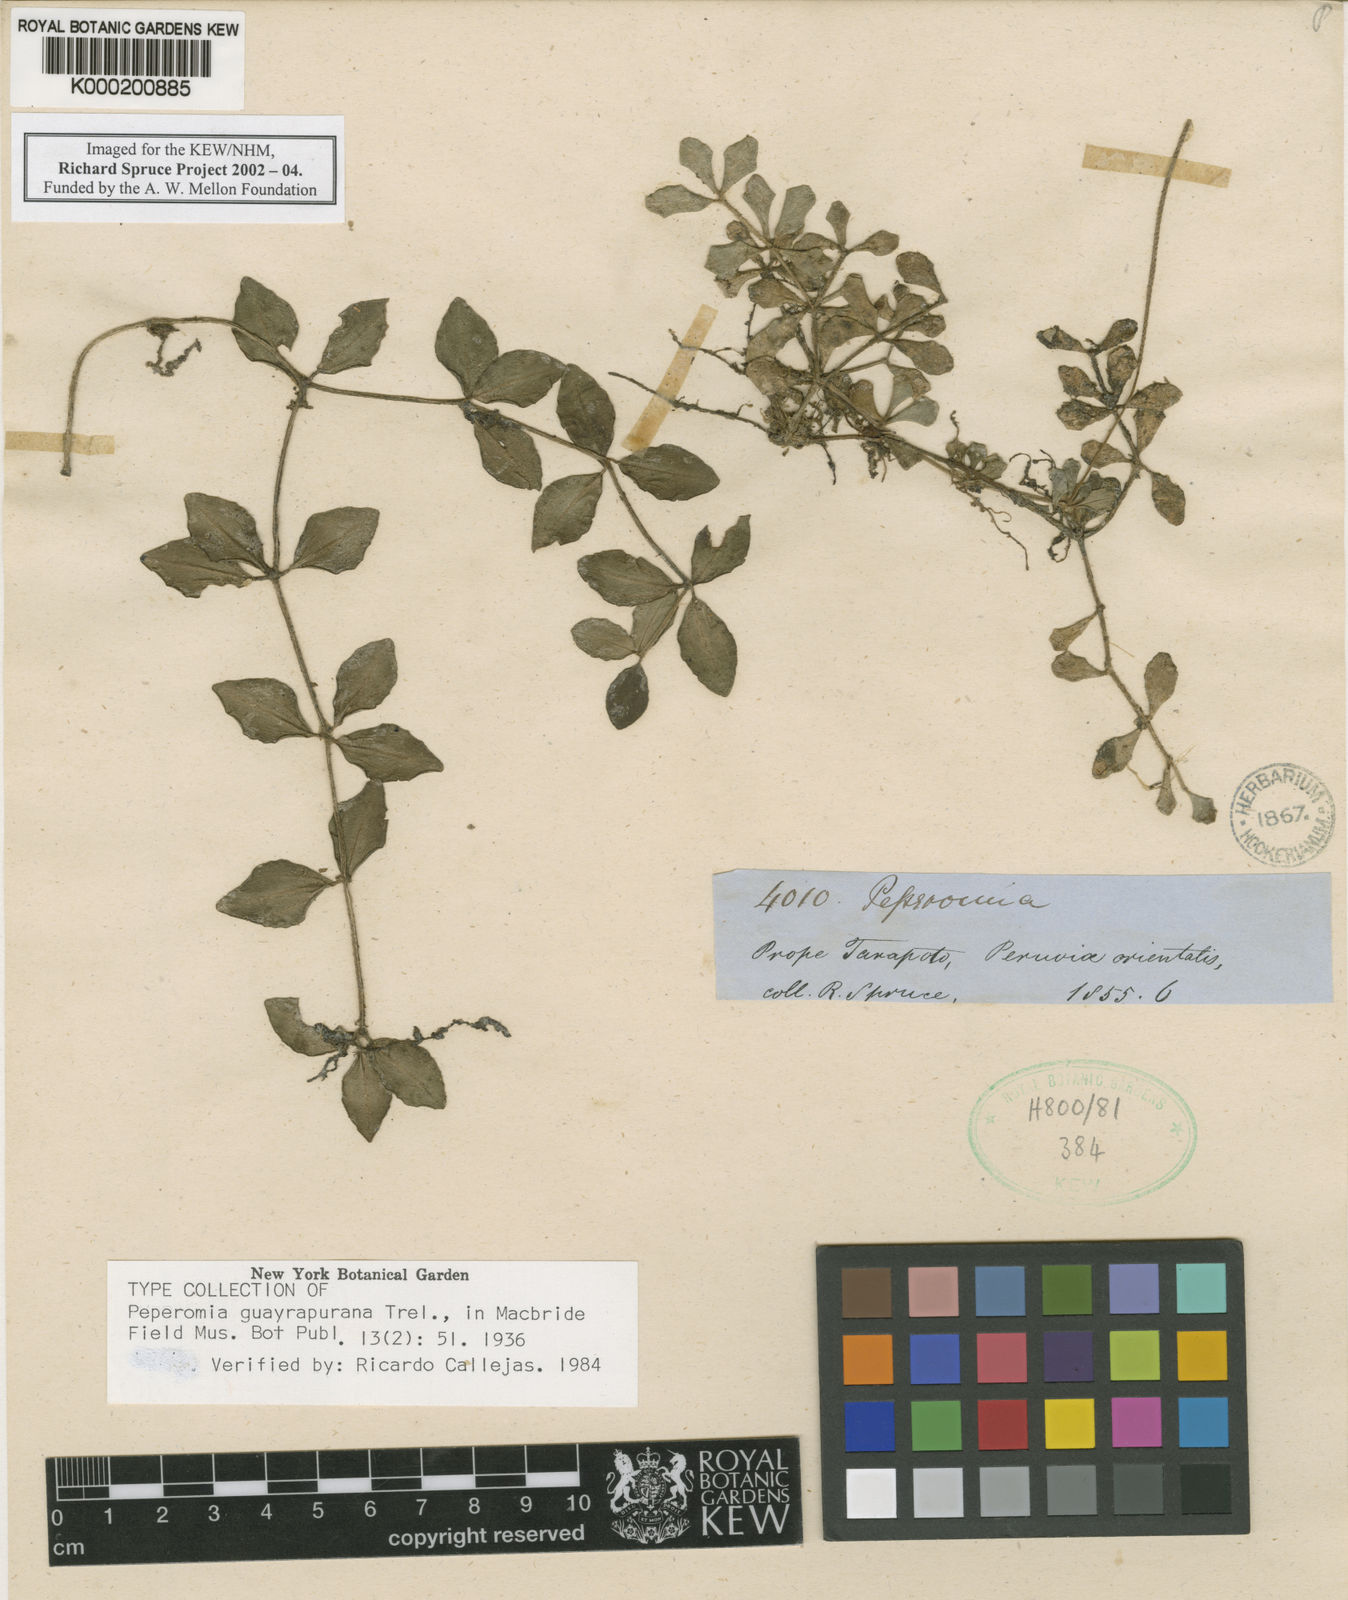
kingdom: Plantae
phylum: Tracheophyta
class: Magnoliopsida
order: Piperales
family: Piperaceae
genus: Peperomia
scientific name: Peperomia guayrapurana
